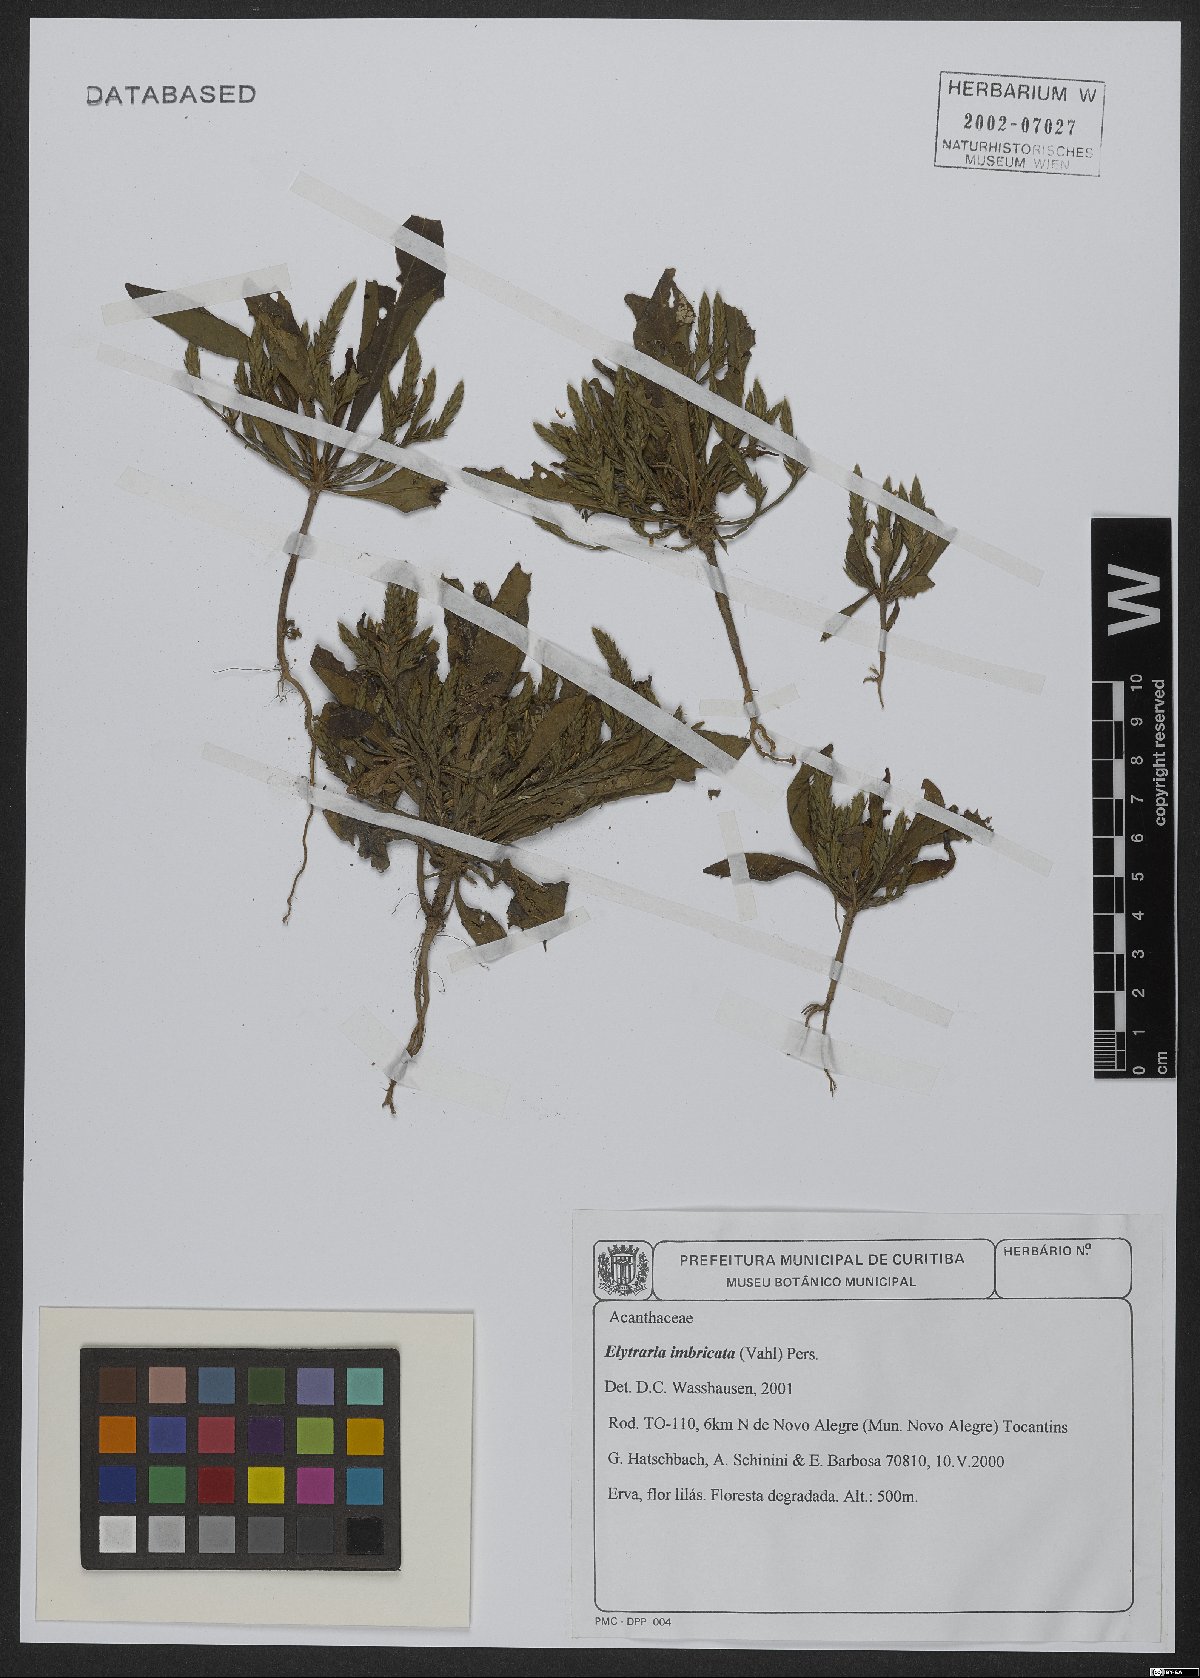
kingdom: Plantae
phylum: Tracheophyta
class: Magnoliopsida
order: Lamiales
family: Acanthaceae
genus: Elytraria
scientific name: Elytraria imbricata
